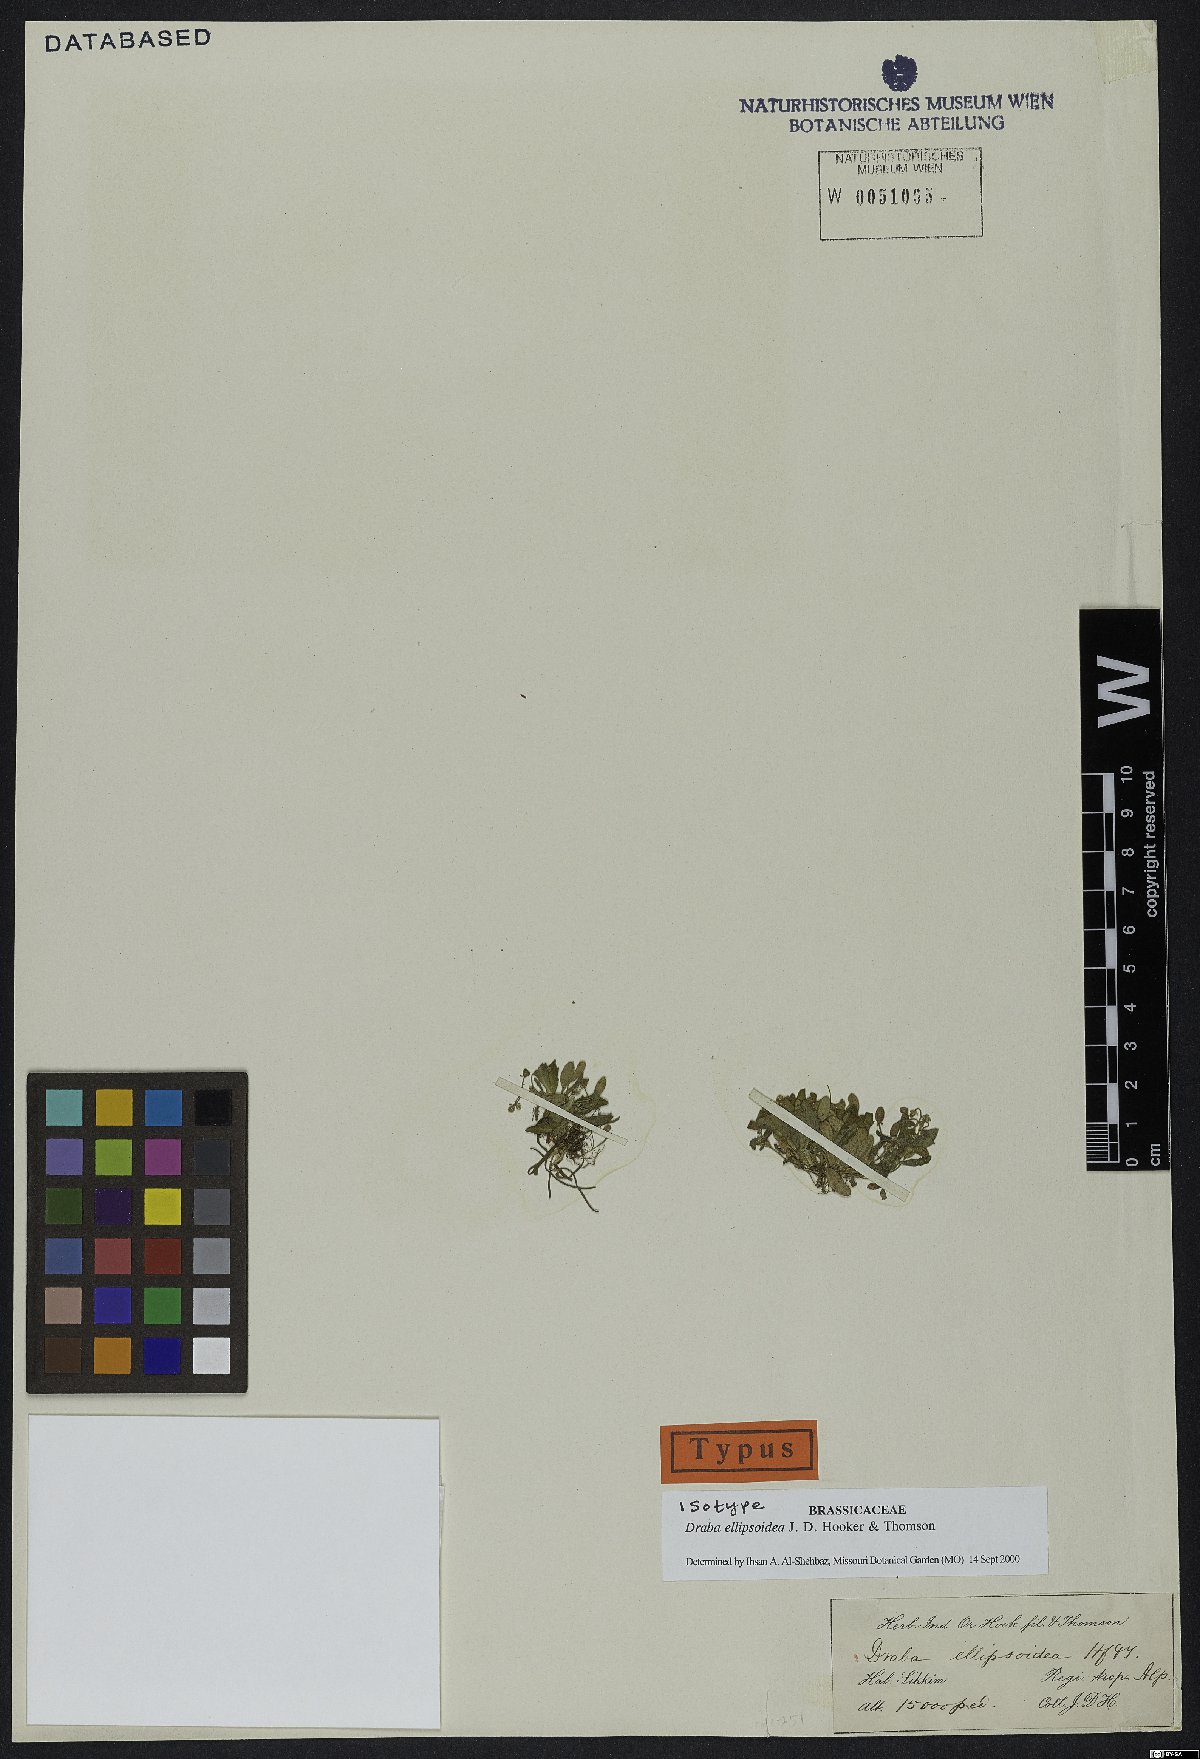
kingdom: Plantae
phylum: Tracheophyta
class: Magnoliopsida
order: Brassicales
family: Brassicaceae
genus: Draba
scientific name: Draba ellipsoidea
